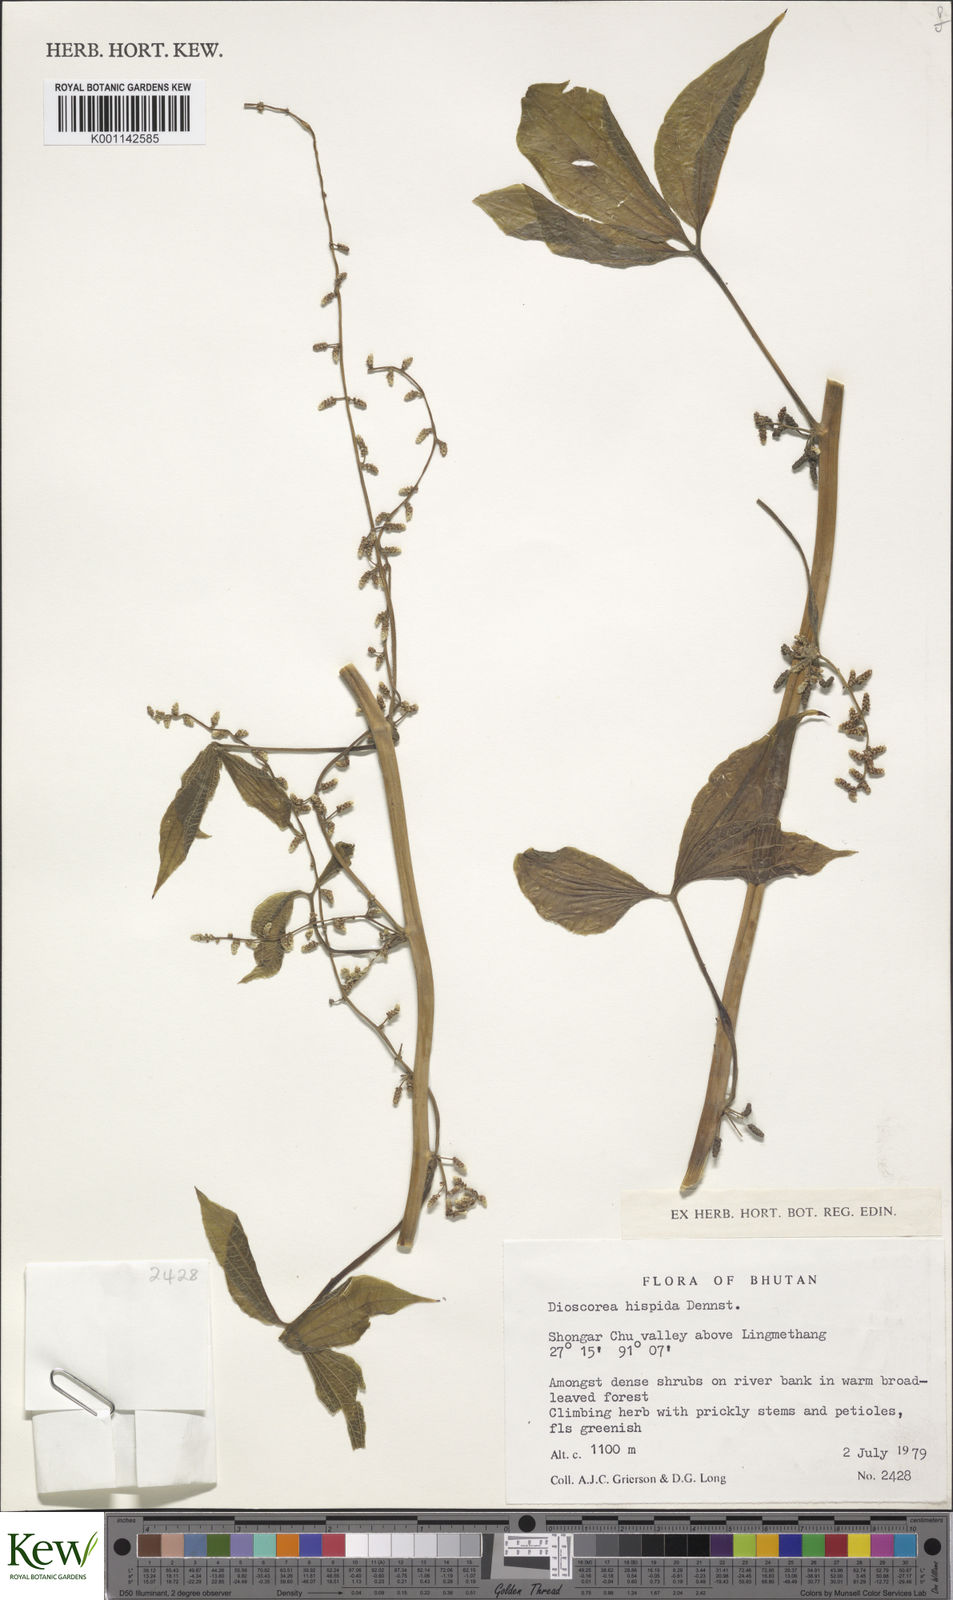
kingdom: Plantae
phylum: Tracheophyta
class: Liliopsida
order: Dioscoreales
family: Dioscoreaceae
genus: Dioscorea
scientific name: Dioscorea pentaphylla
